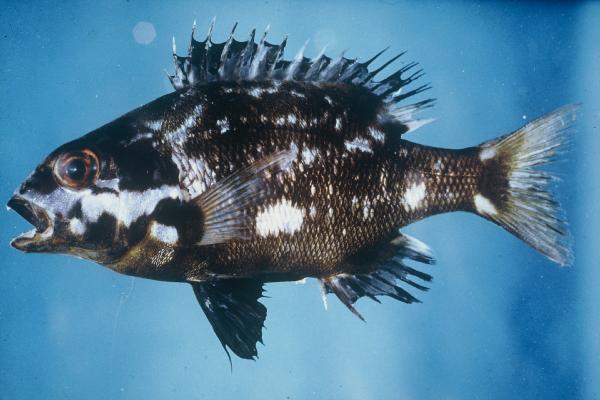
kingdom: Animalia
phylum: Chordata
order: Perciformes
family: Sparidae
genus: Cymatoceps
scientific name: Cymatoceps nasutus
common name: Black musselcracker
